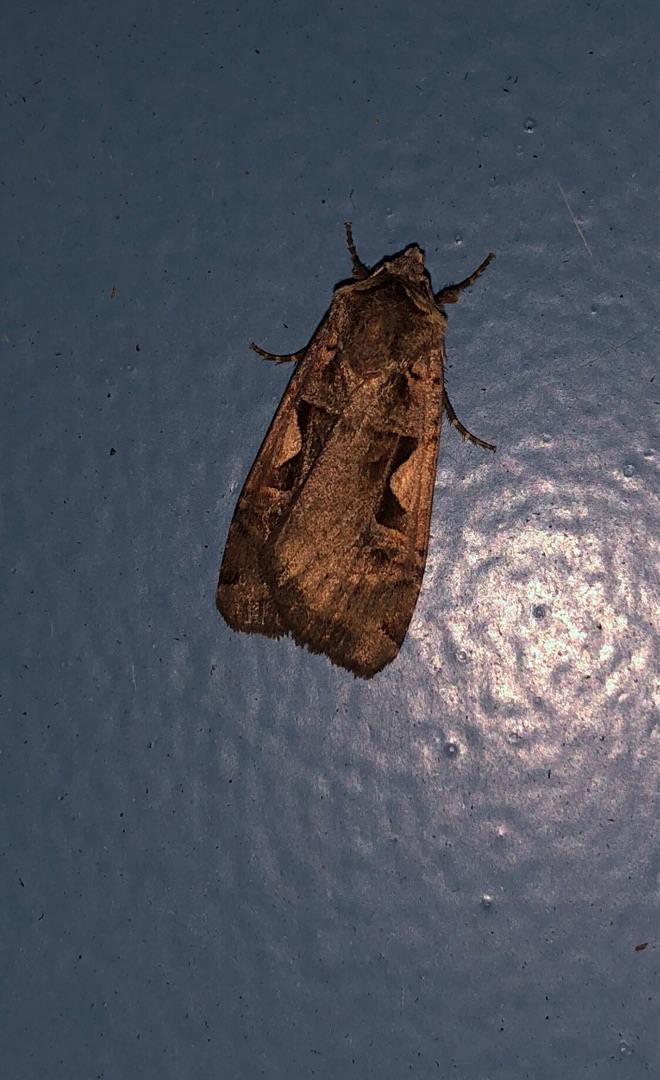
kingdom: Animalia
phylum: Arthropoda
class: Insecta
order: Lepidoptera
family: Noctuidae
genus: Xestia
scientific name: Xestia c-nigrum
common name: Det sorte c
